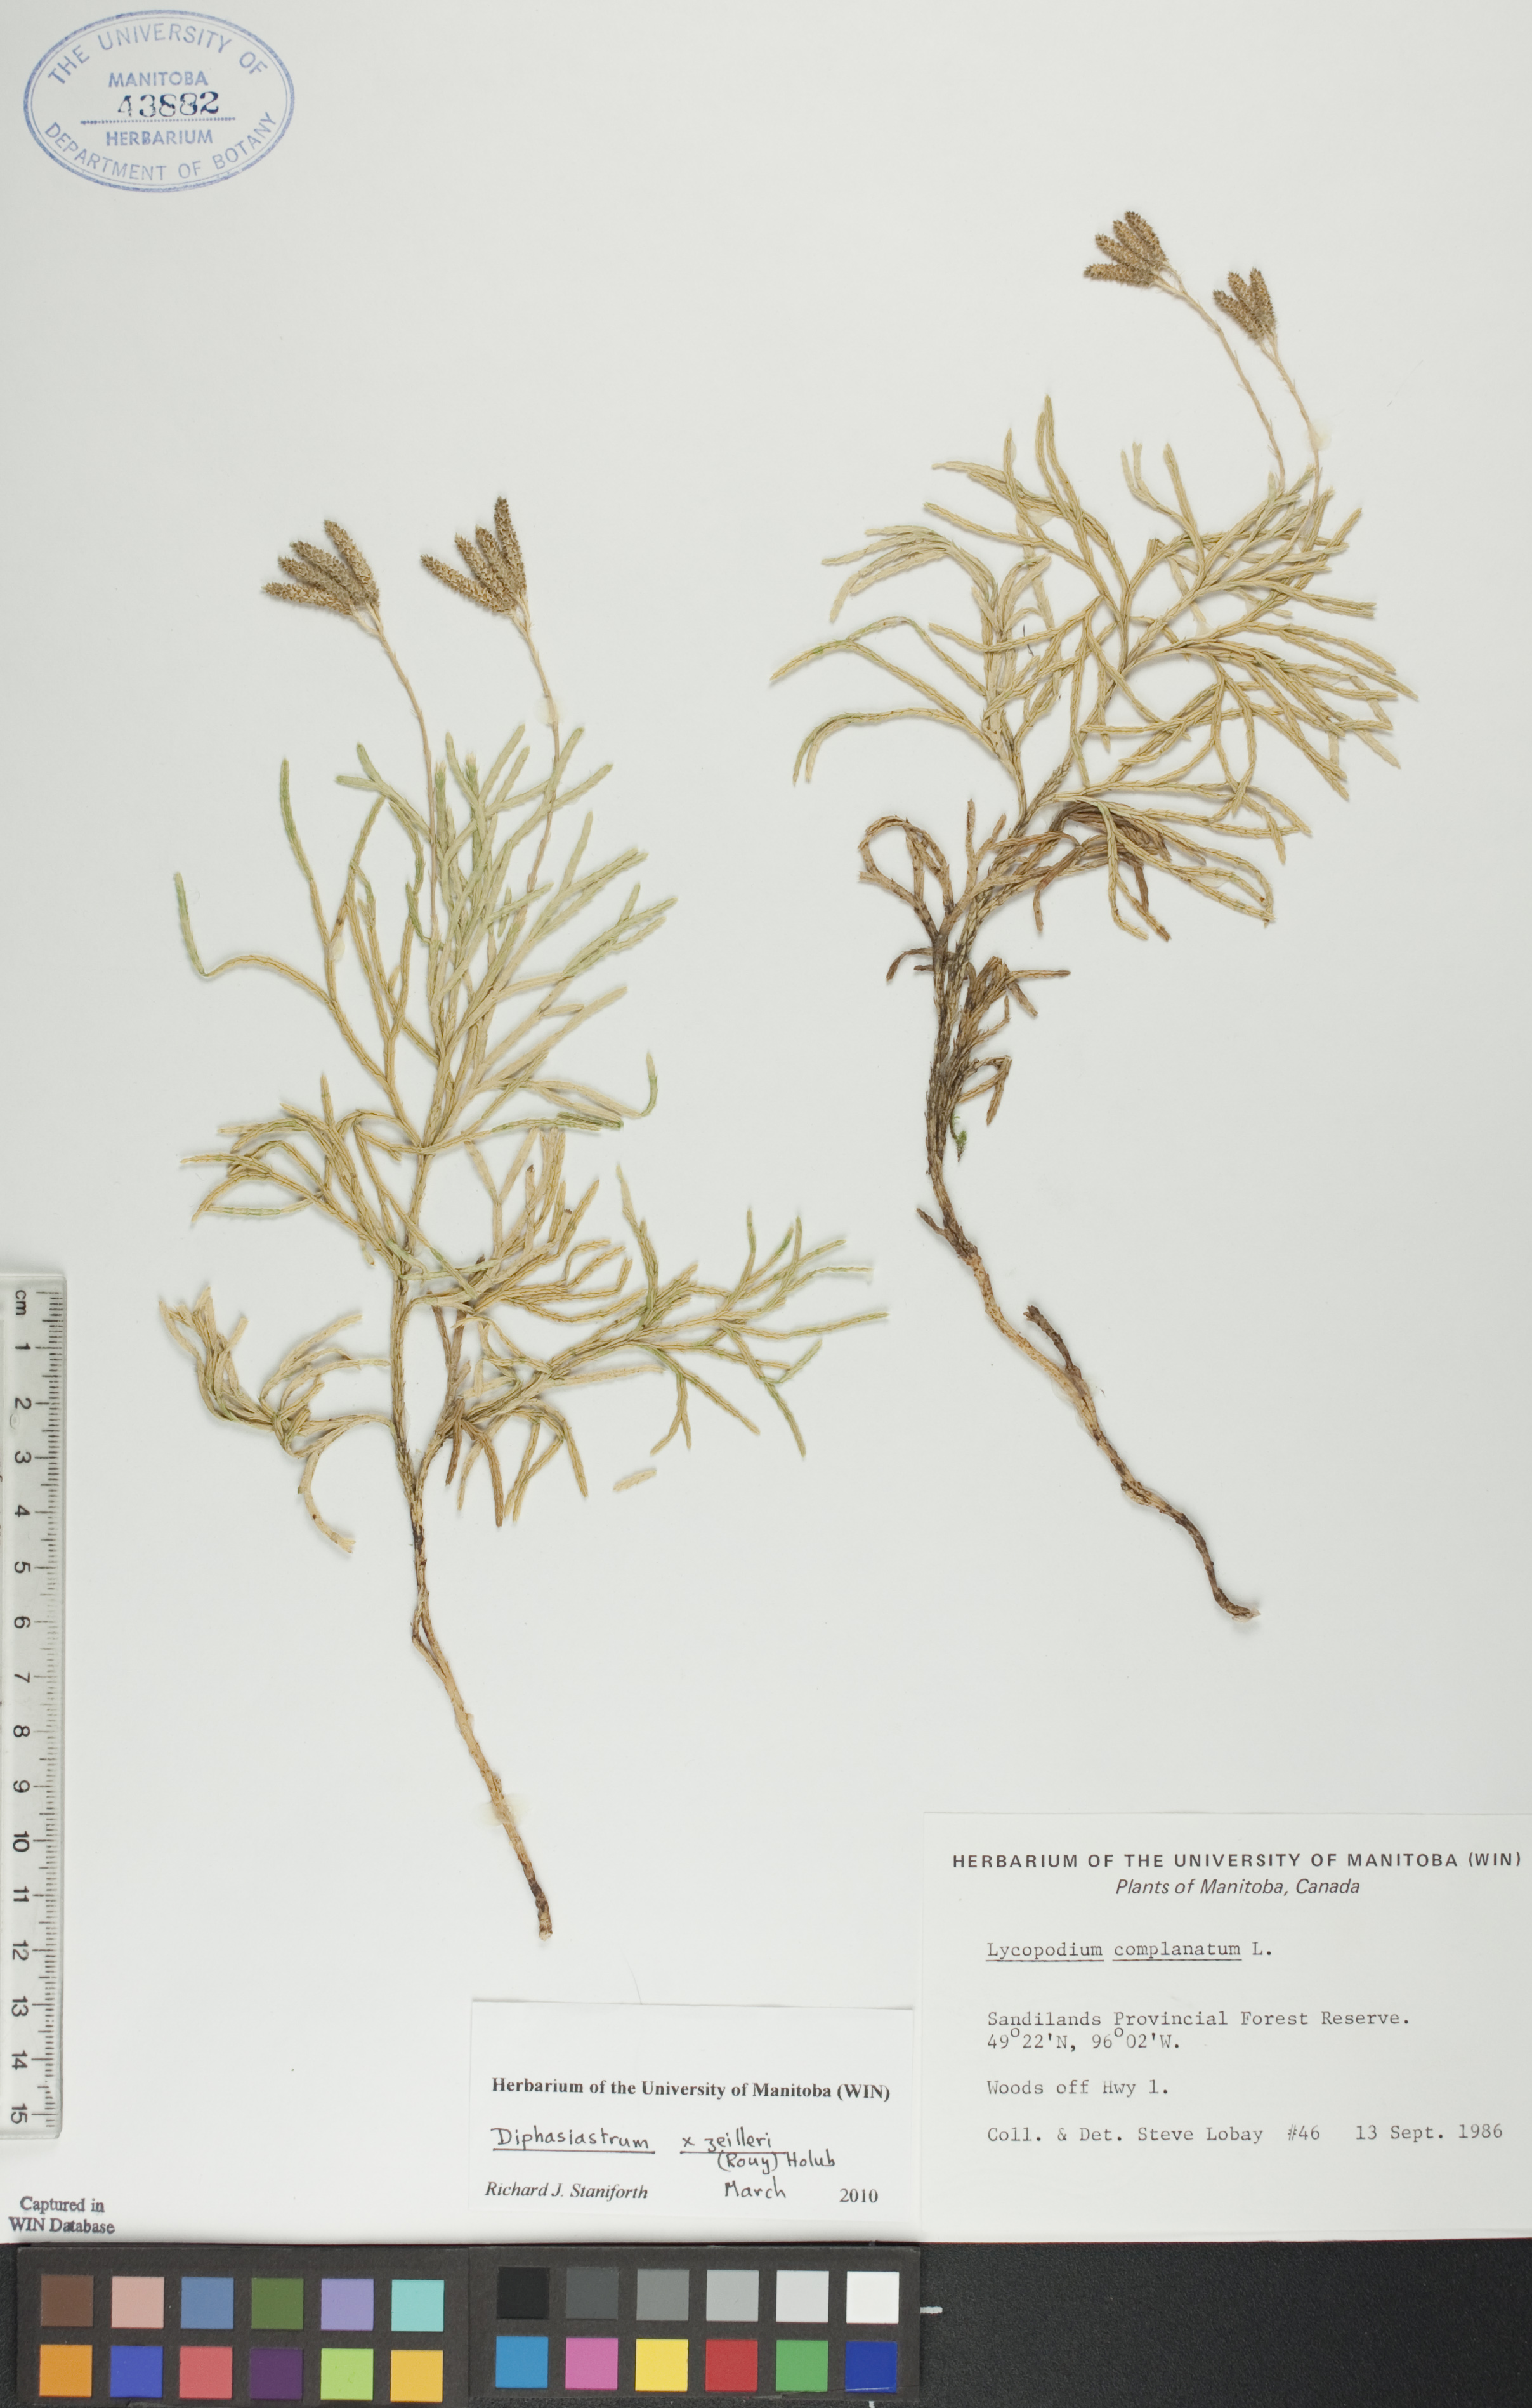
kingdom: Plantae
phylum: Tracheophyta
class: Lycopodiopsida
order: Lycopodiales
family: Lycopodiaceae
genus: Diphasiastrum
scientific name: Diphasiastrum zeilleri
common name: Zeiller's clubmoss
